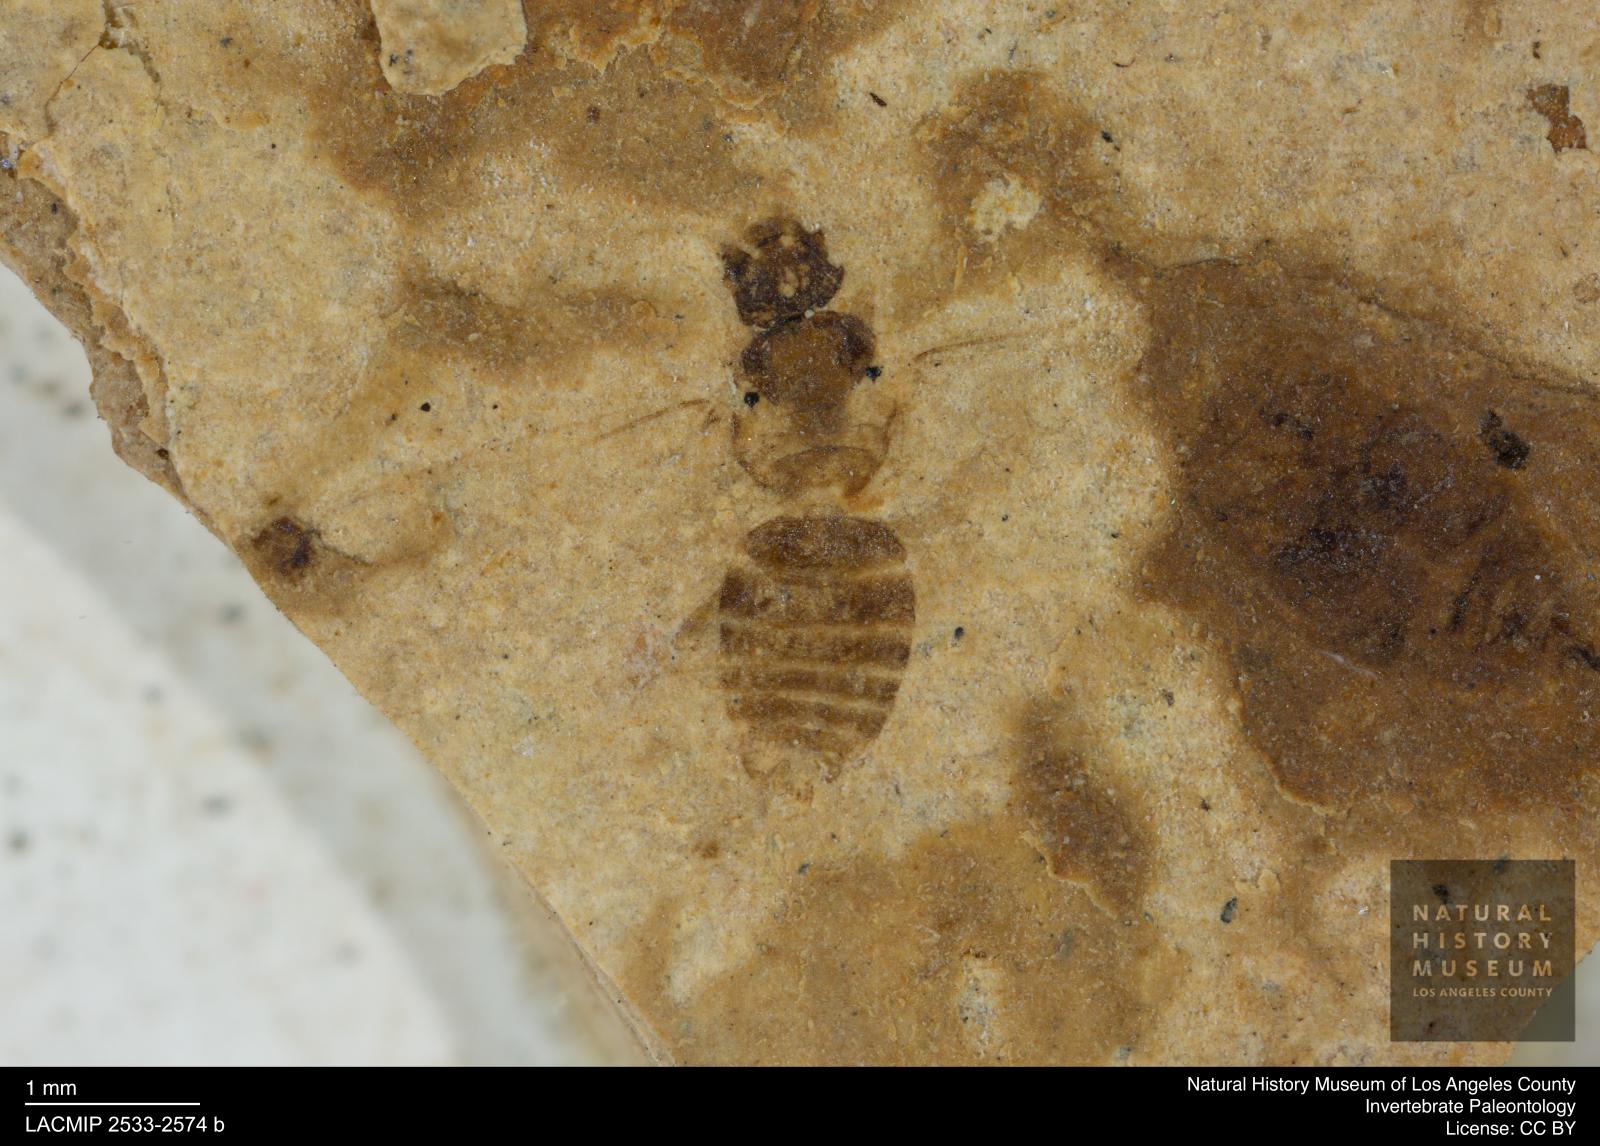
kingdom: Animalia
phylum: Arthropoda
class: Insecta
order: Hymenoptera
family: Formicidae
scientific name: Formicidae
